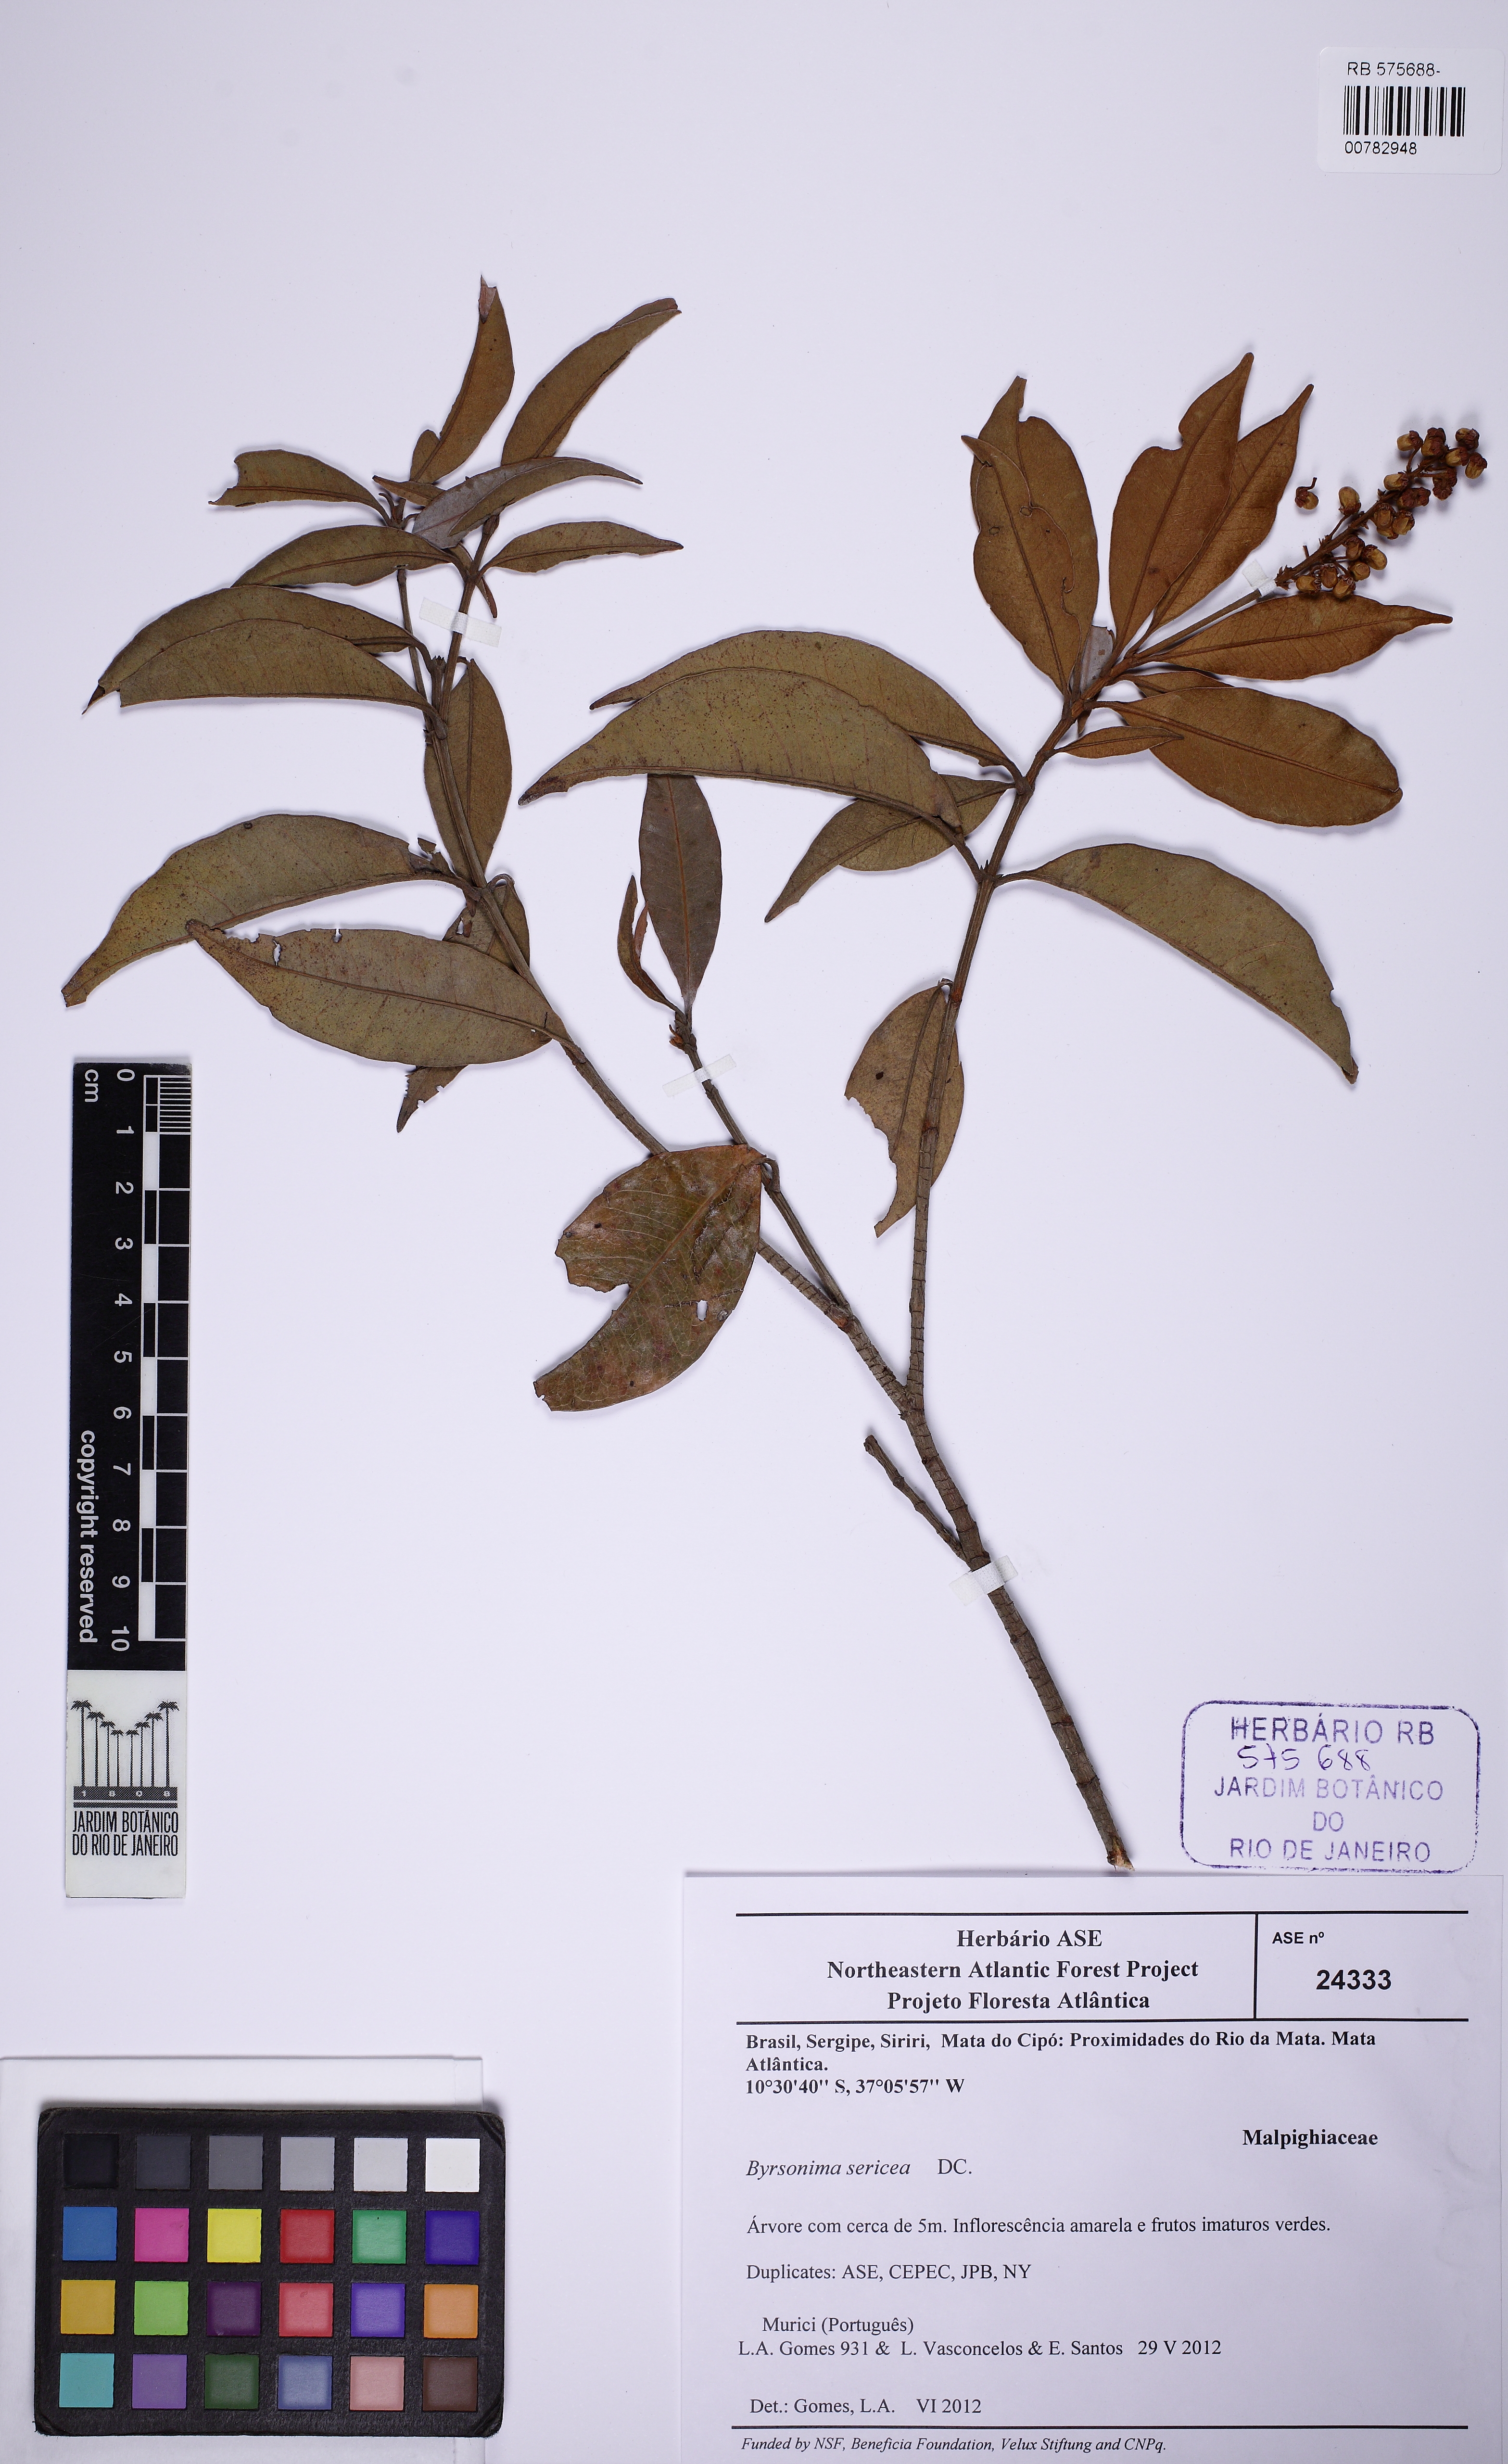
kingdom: Plantae
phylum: Tracheophyta
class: Magnoliopsida
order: Malpighiales
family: Malpighiaceae
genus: Byrsonima
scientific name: Byrsonima sericea
